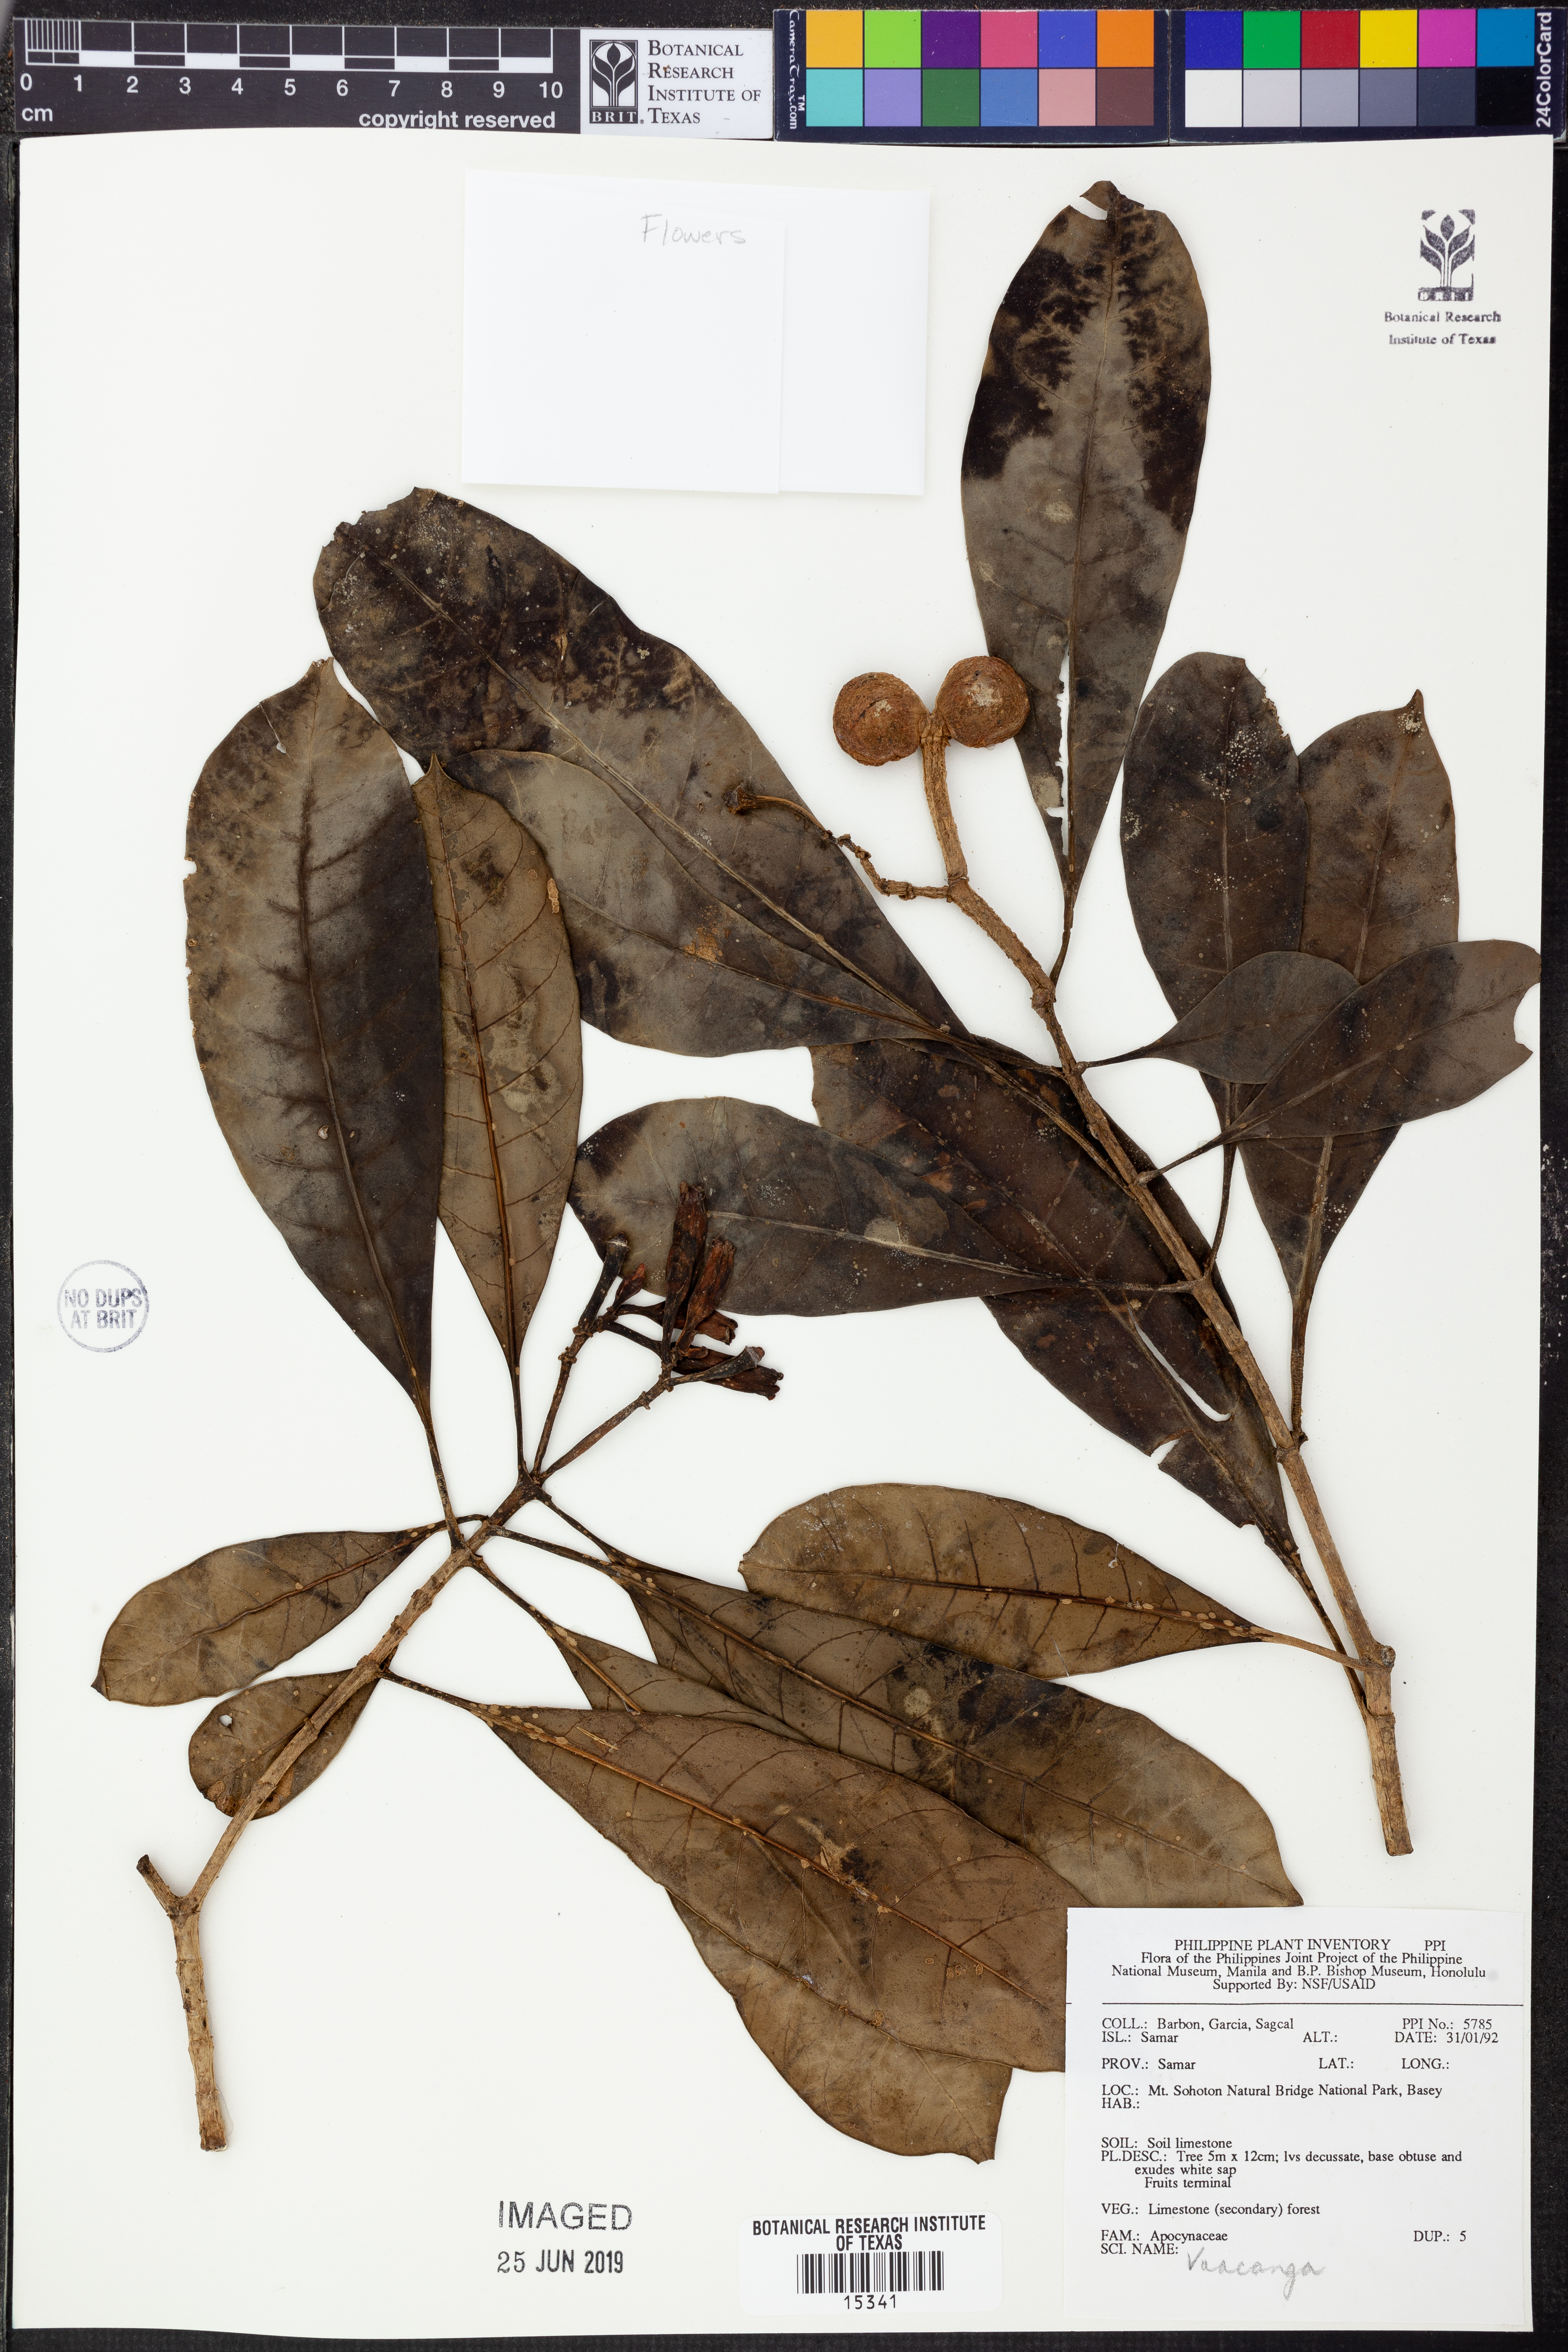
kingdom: Plantae
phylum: Tracheophyta
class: Magnoliopsida
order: Gentianales
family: Apocynaceae
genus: Voacanga
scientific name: Voacanga
